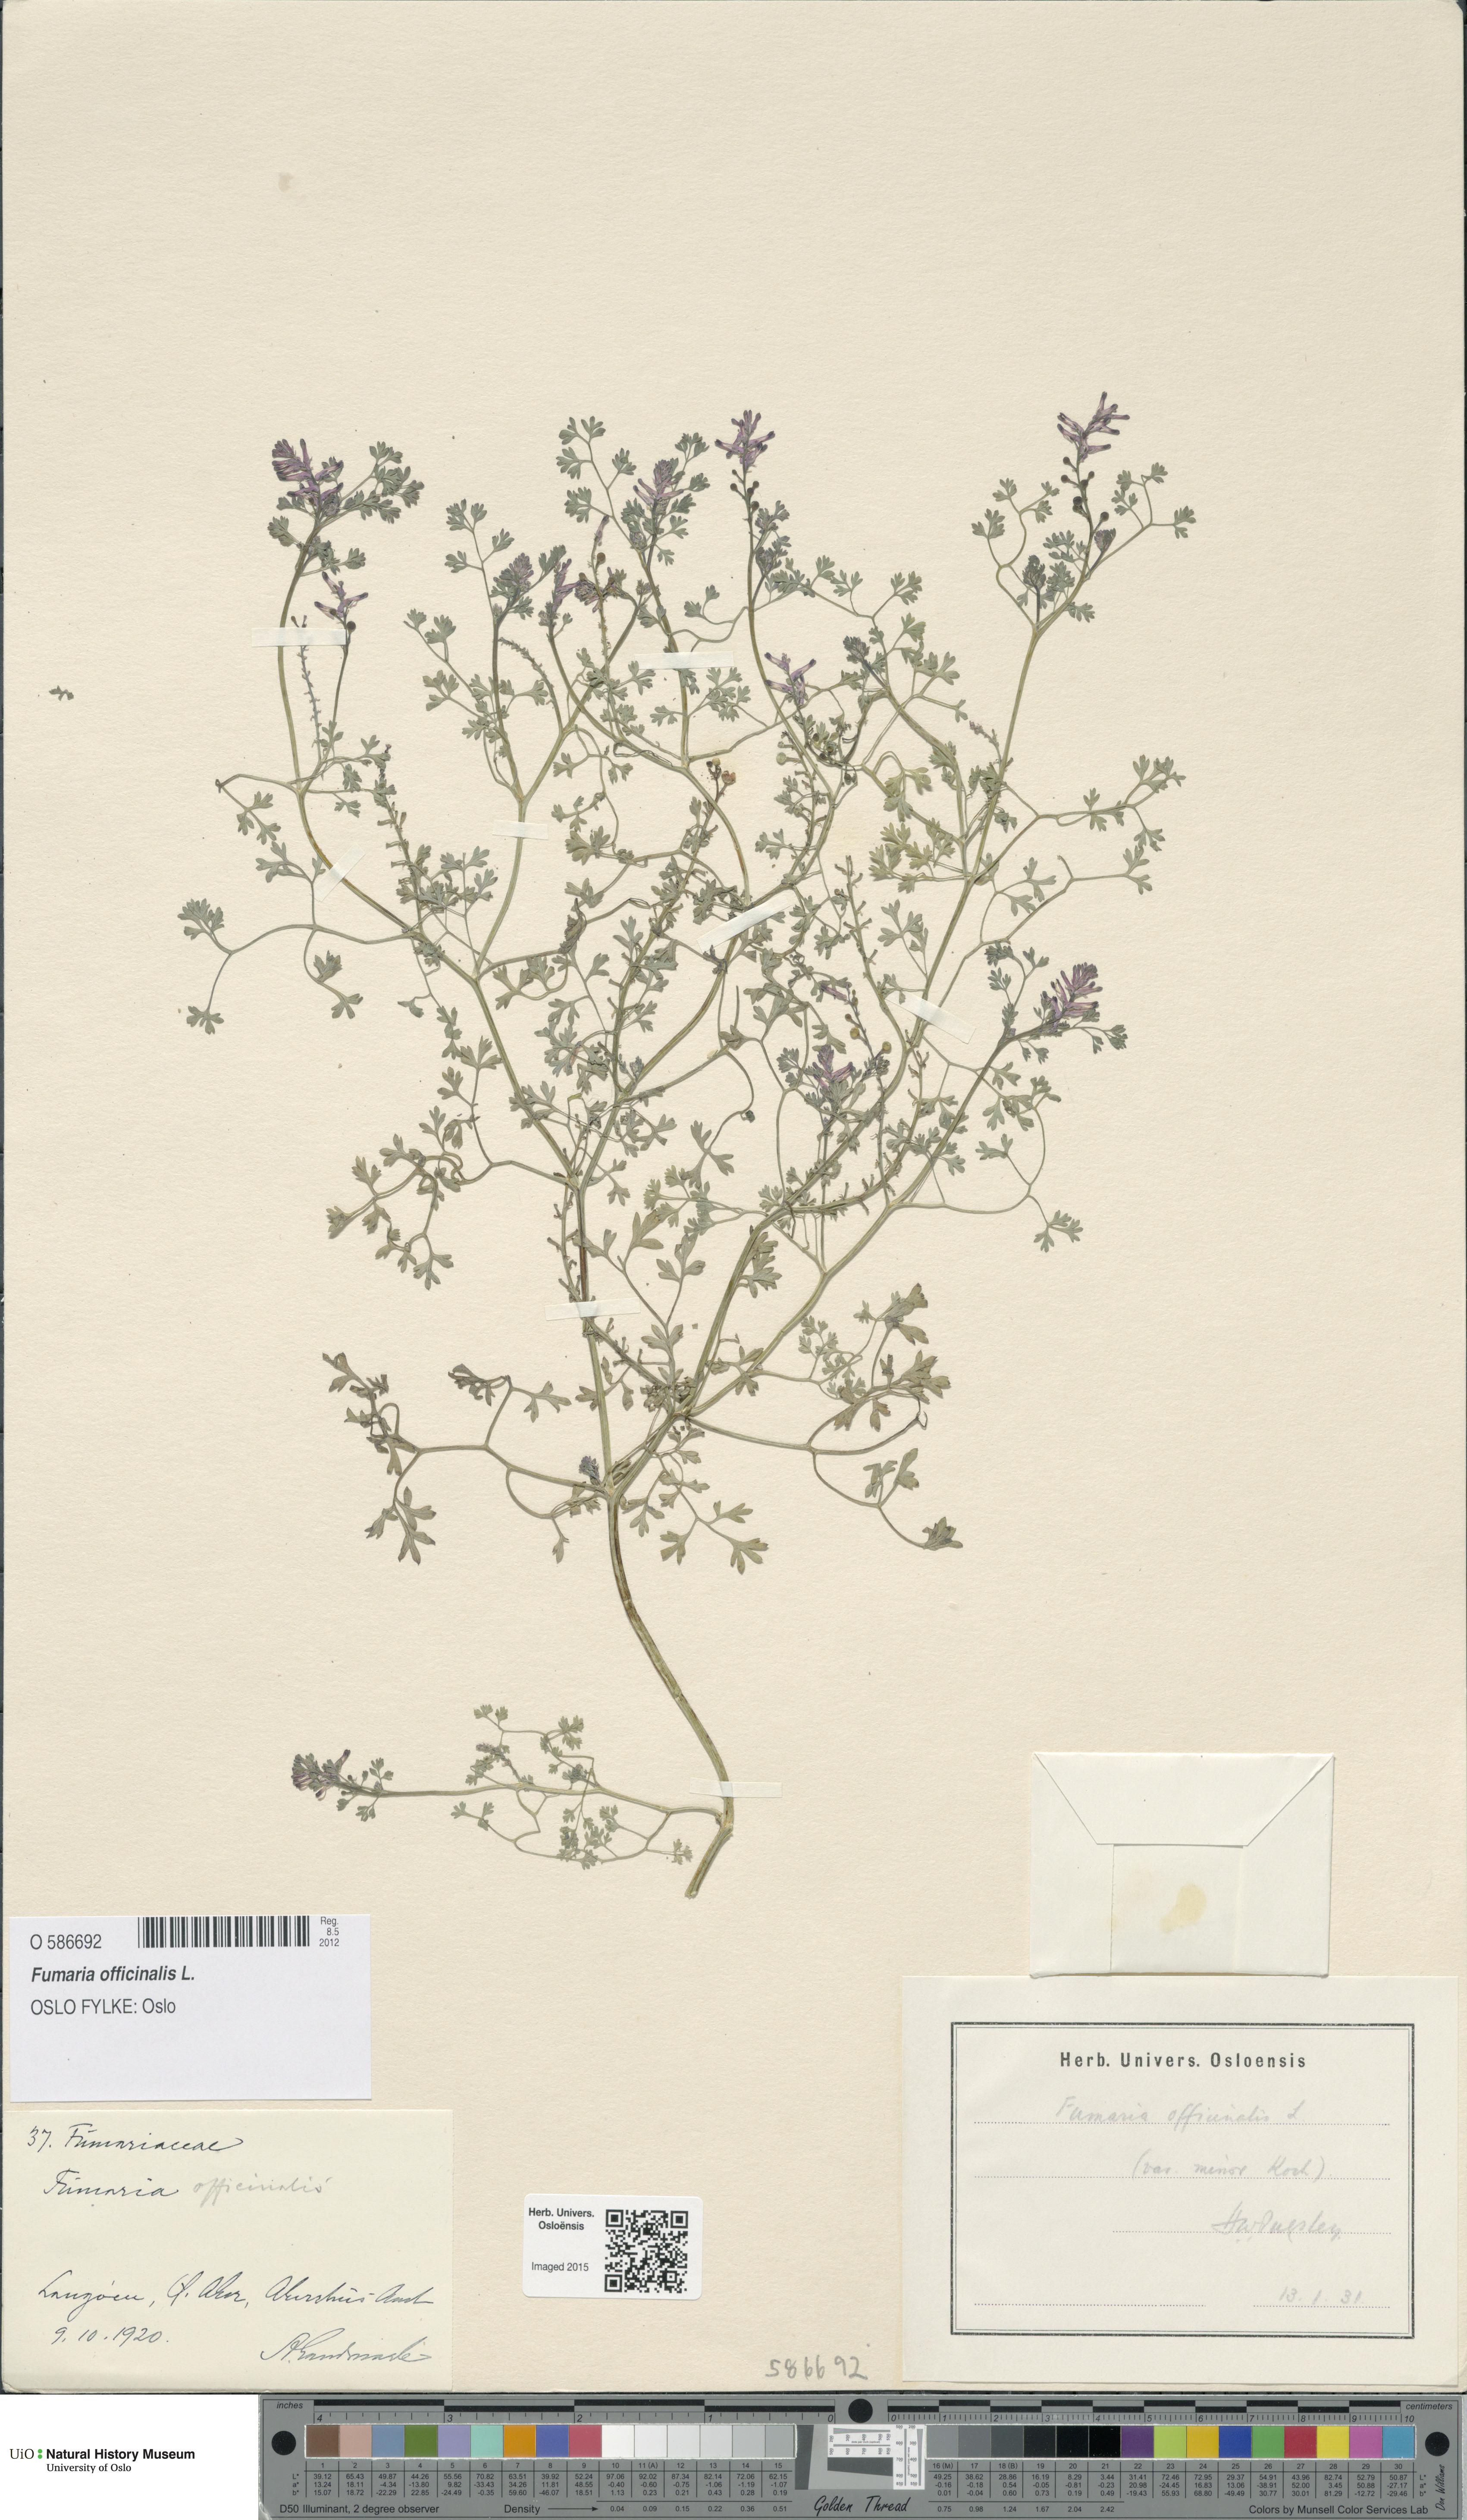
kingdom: Plantae
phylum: Tracheophyta
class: Magnoliopsida
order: Ranunculales
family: Papaveraceae
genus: Fumaria
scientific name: Fumaria officinalis
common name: Common fumitory
